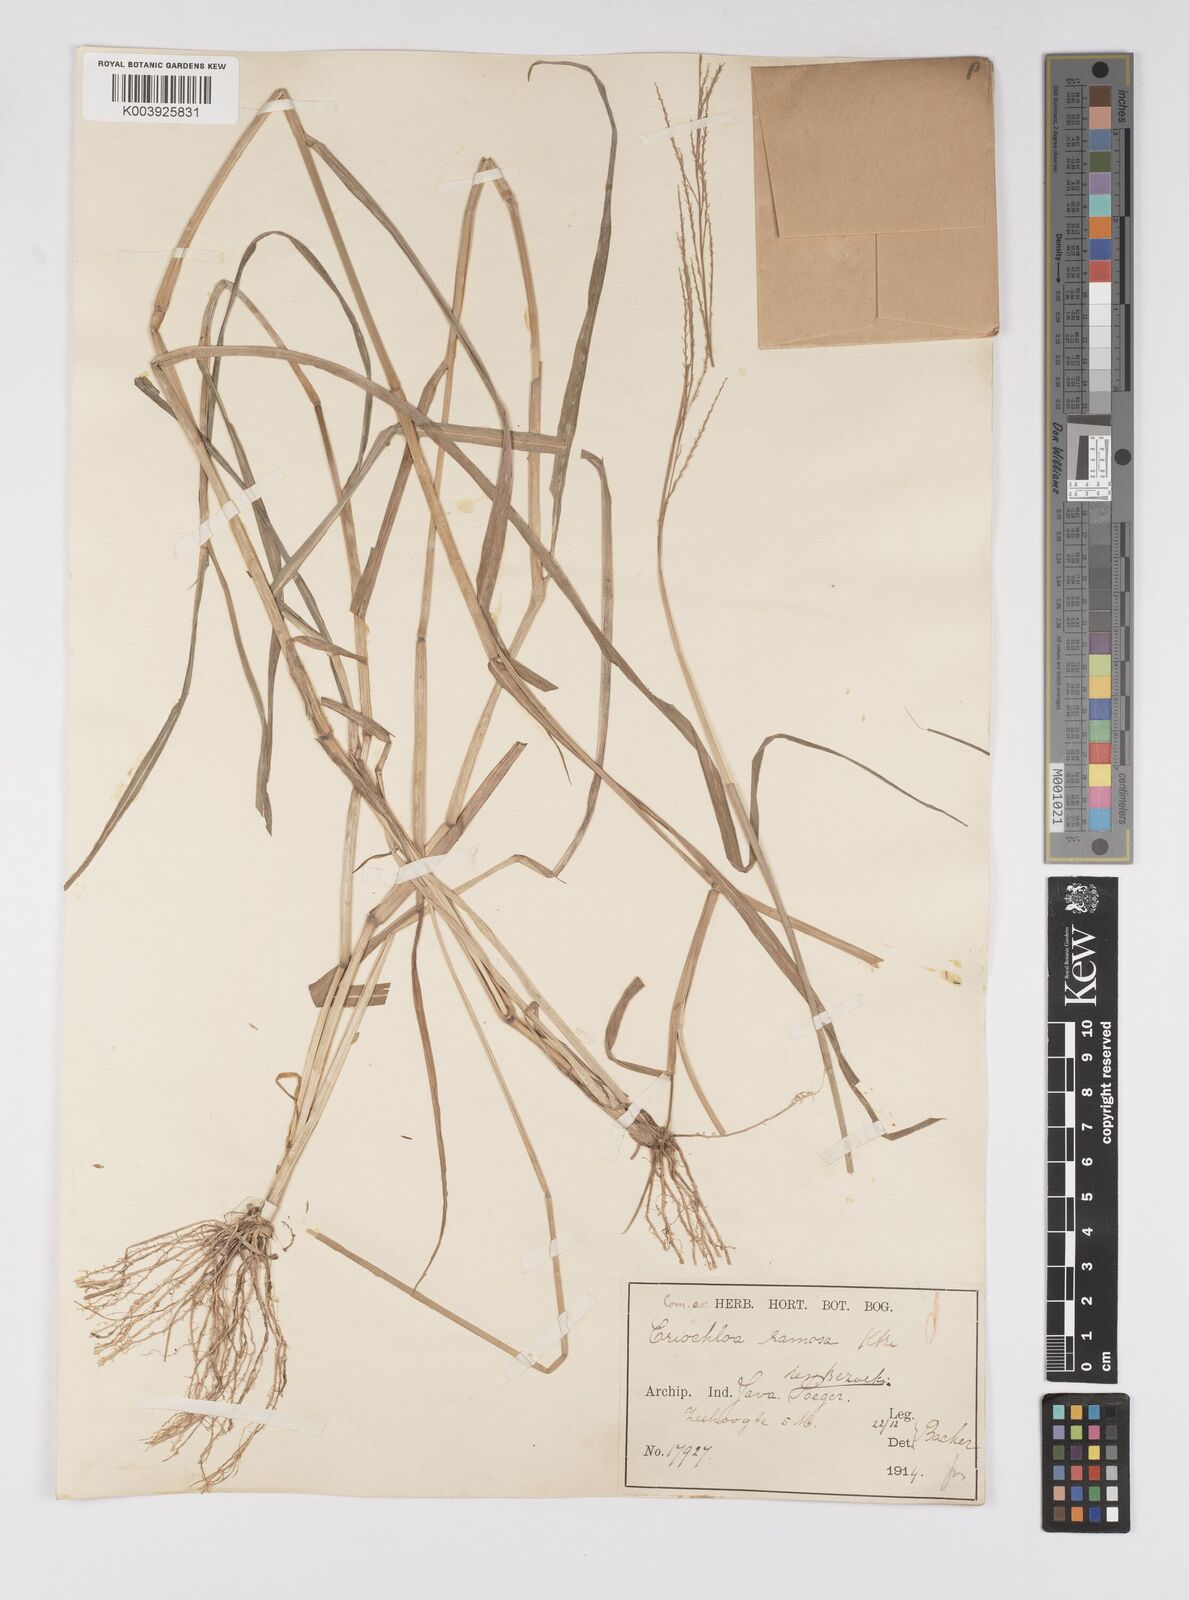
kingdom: Plantae
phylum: Tracheophyta
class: Liliopsida
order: Poales
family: Poaceae
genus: Eriochloa
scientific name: Eriochloa procera
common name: Spring grass
